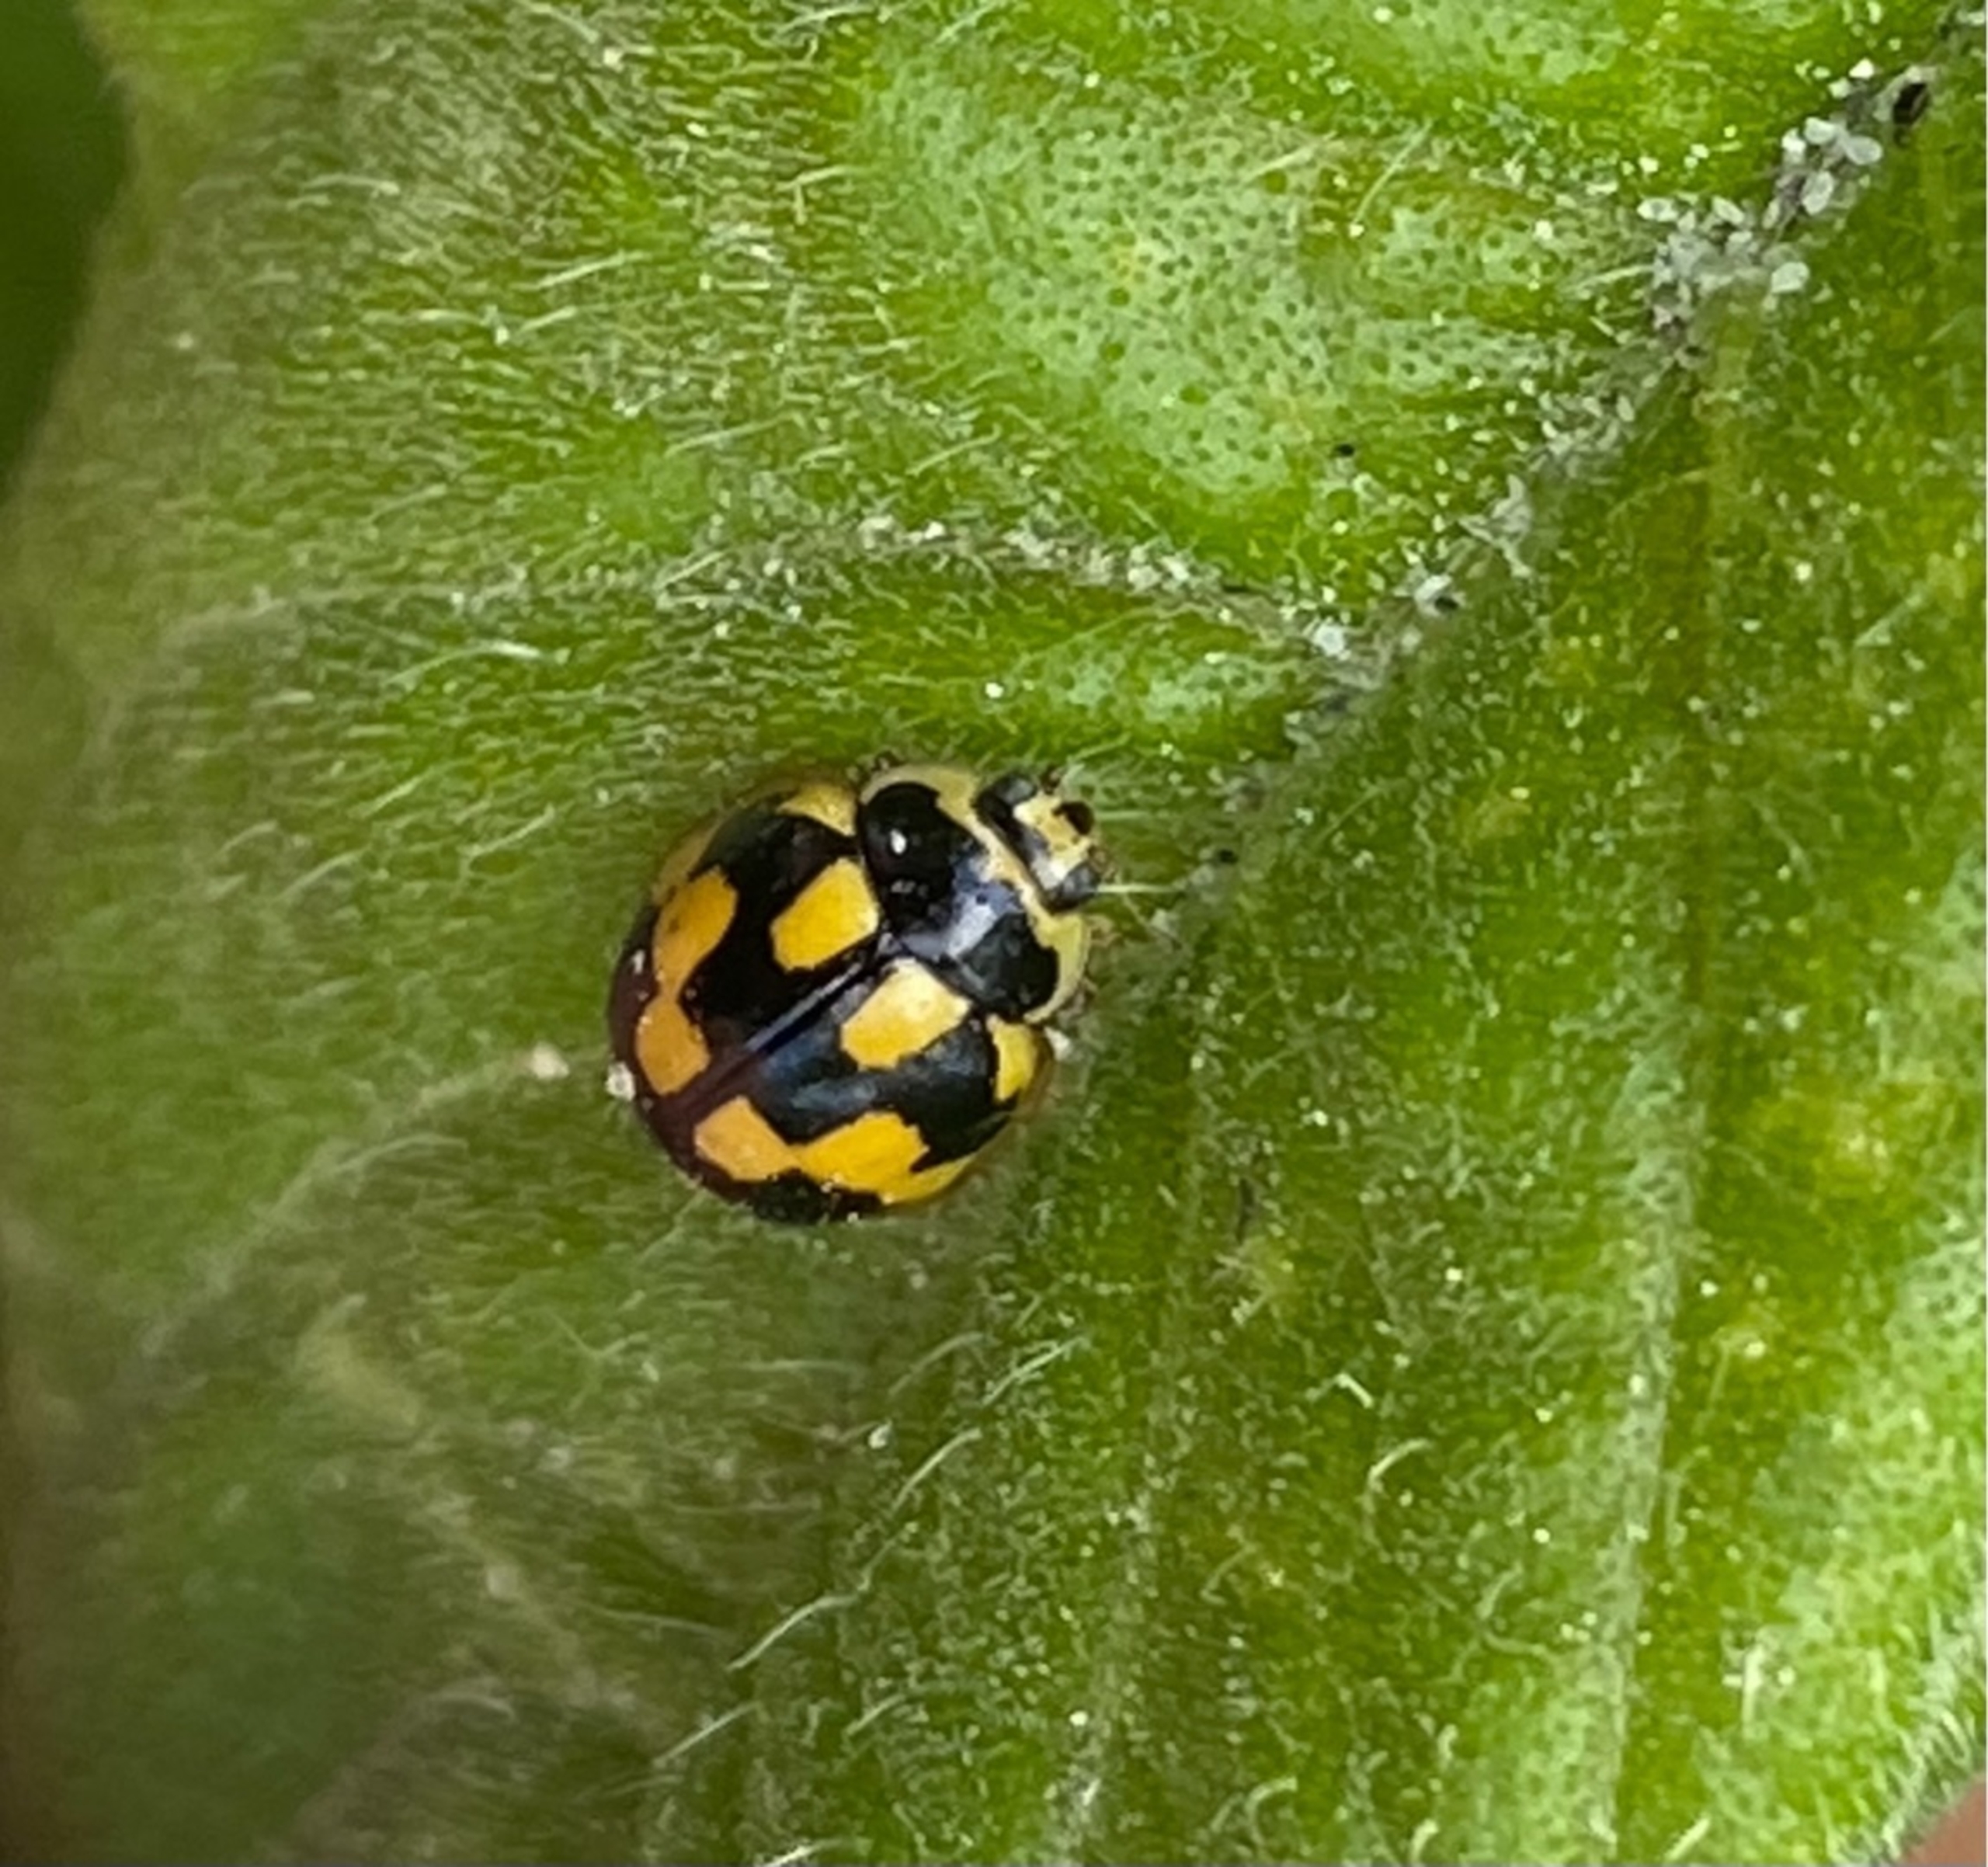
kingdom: Animalia
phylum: Arthropoda
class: Insecta
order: Coleoptera
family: Coccinellidae
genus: Propylaea
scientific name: Propylaea quatuordecimpunctata
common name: Skakbræt
